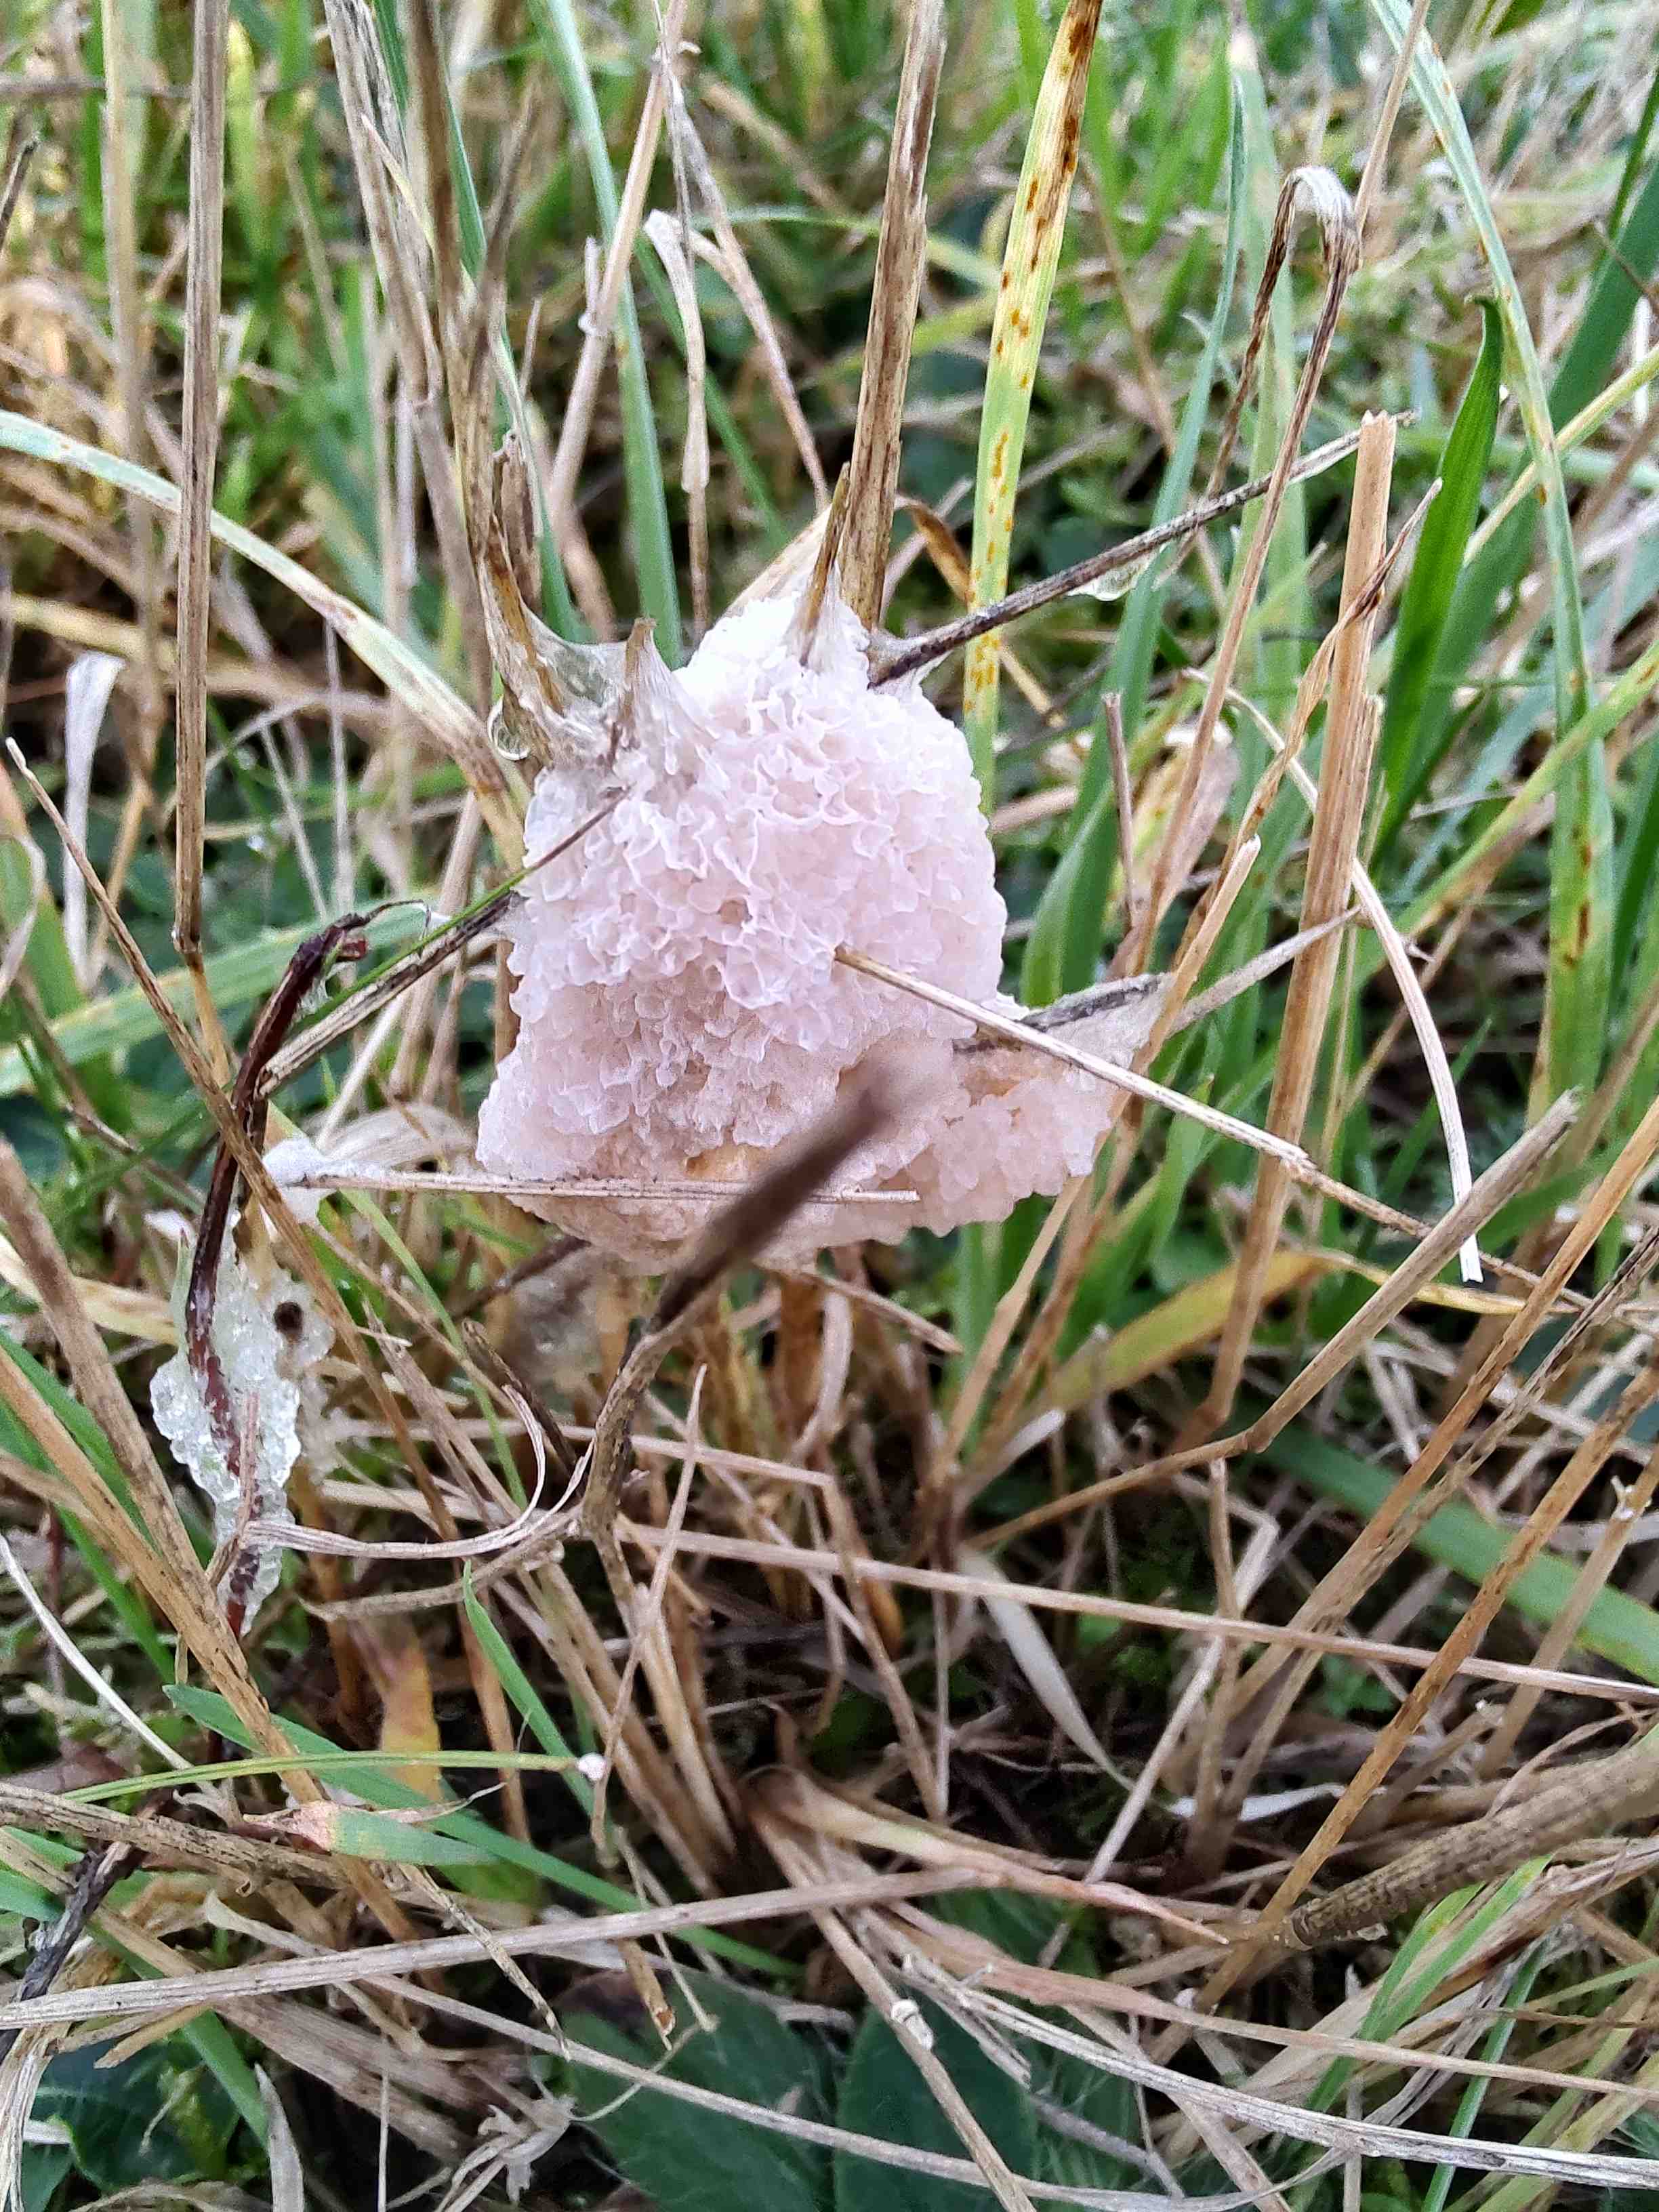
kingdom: Protozoa
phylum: Mycetozoa
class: Myxomycetes
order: Physarales
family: Physaraceae
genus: Didymium
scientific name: Didymium
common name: urteskum
